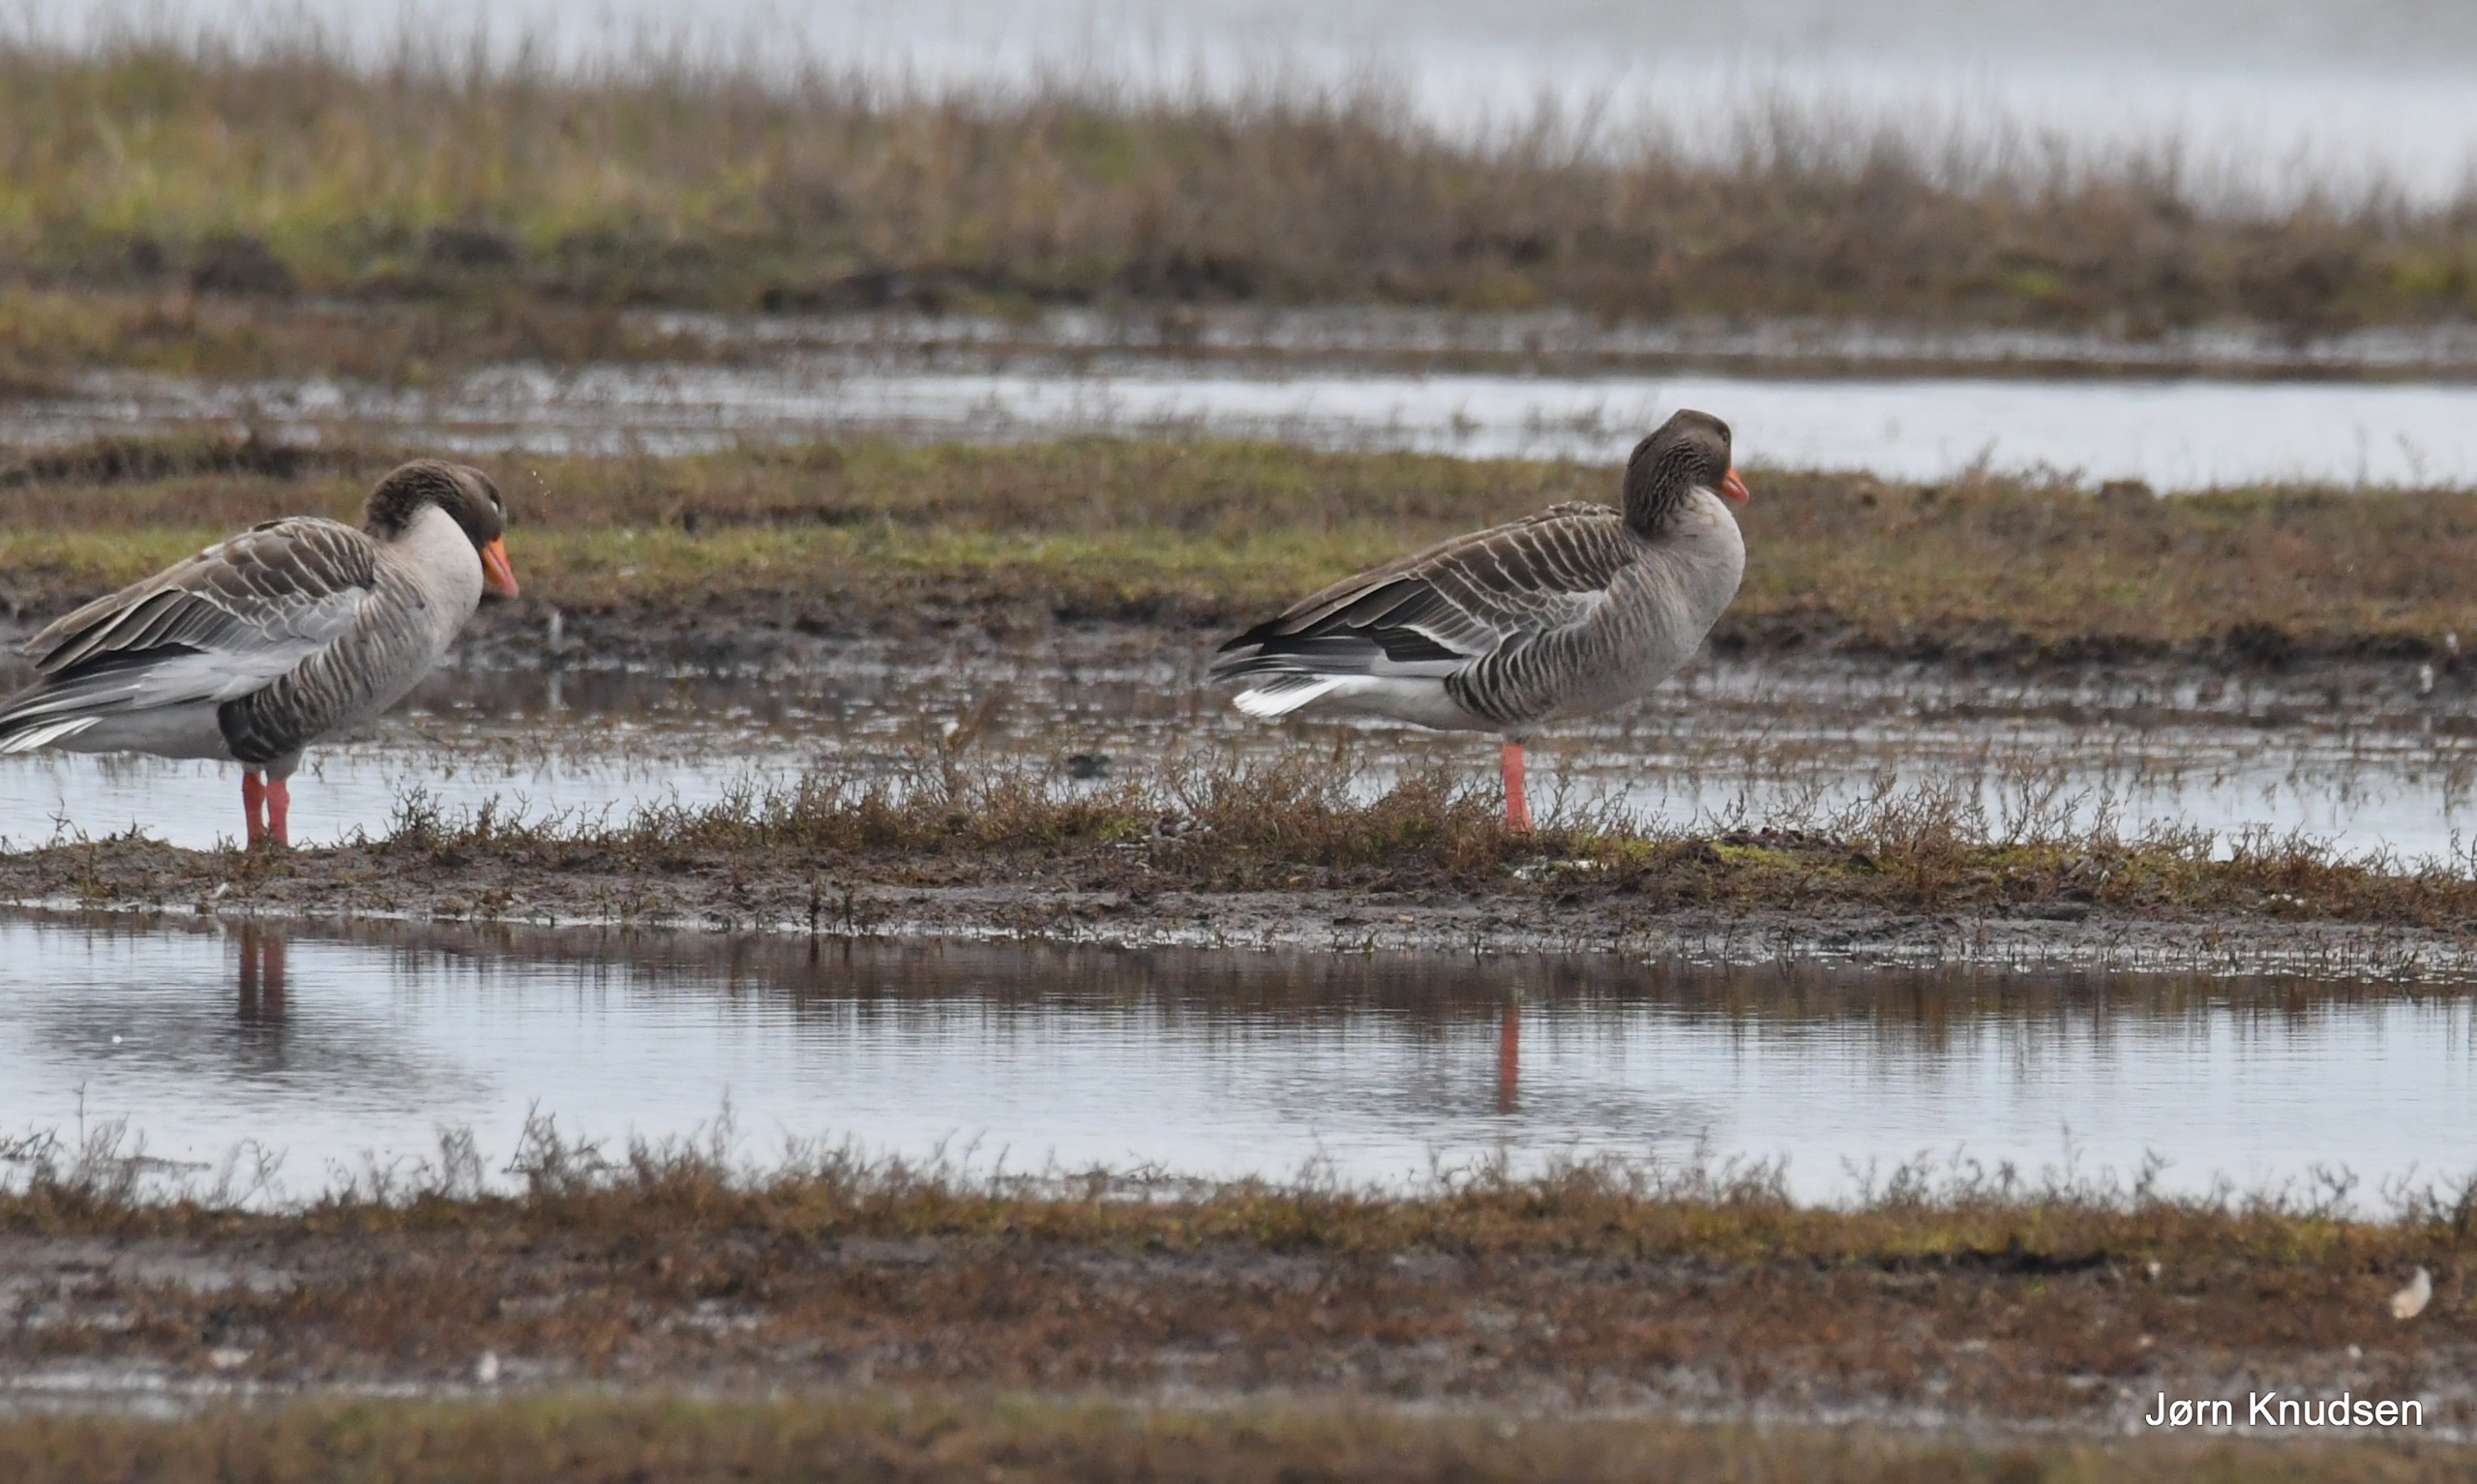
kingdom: Animalia
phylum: Chordata
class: Aves
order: Anseriformes
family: Anatidae
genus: Anser
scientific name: Anser anser
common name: Grågås
